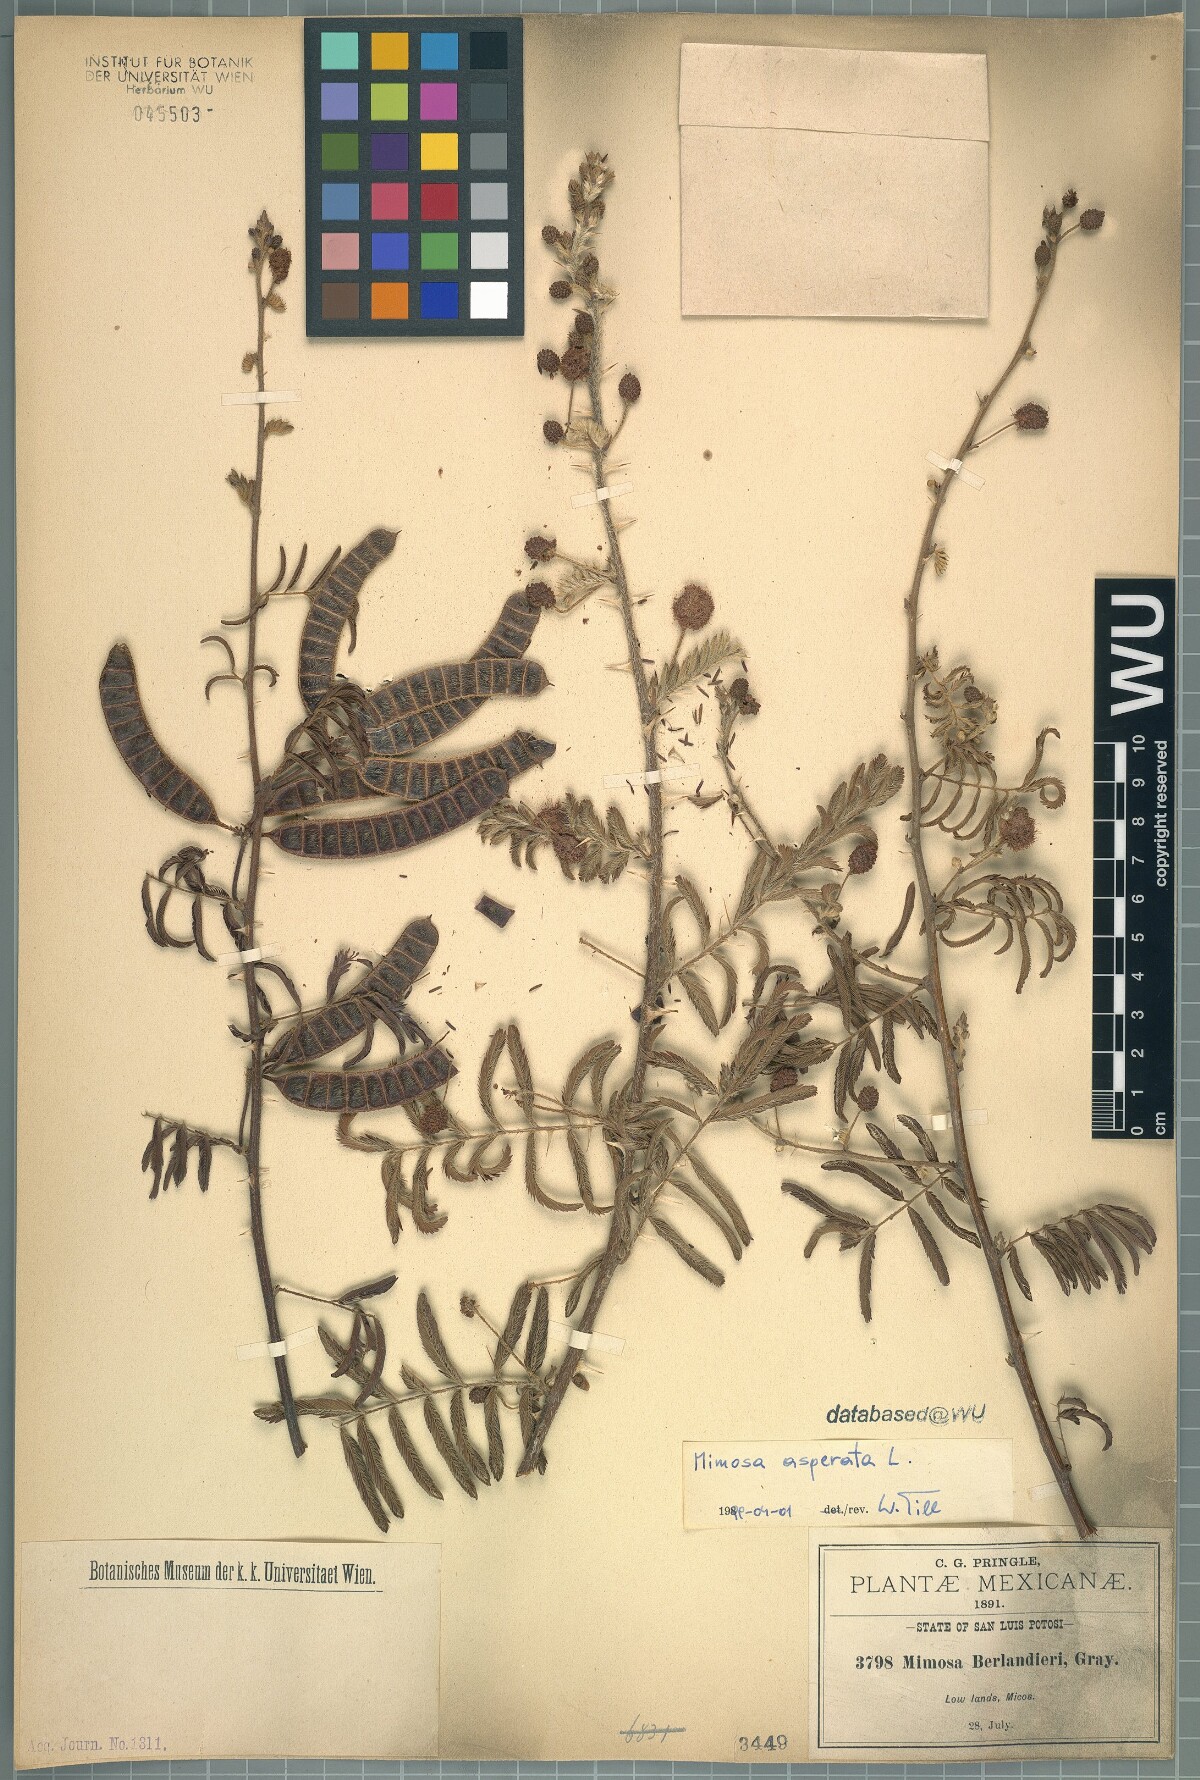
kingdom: Plantae
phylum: Tracheophyta
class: Magnoliopsida
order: Fabales
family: Fabaceae
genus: Mimosa
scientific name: Mimosa pigra
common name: Black mimosa
